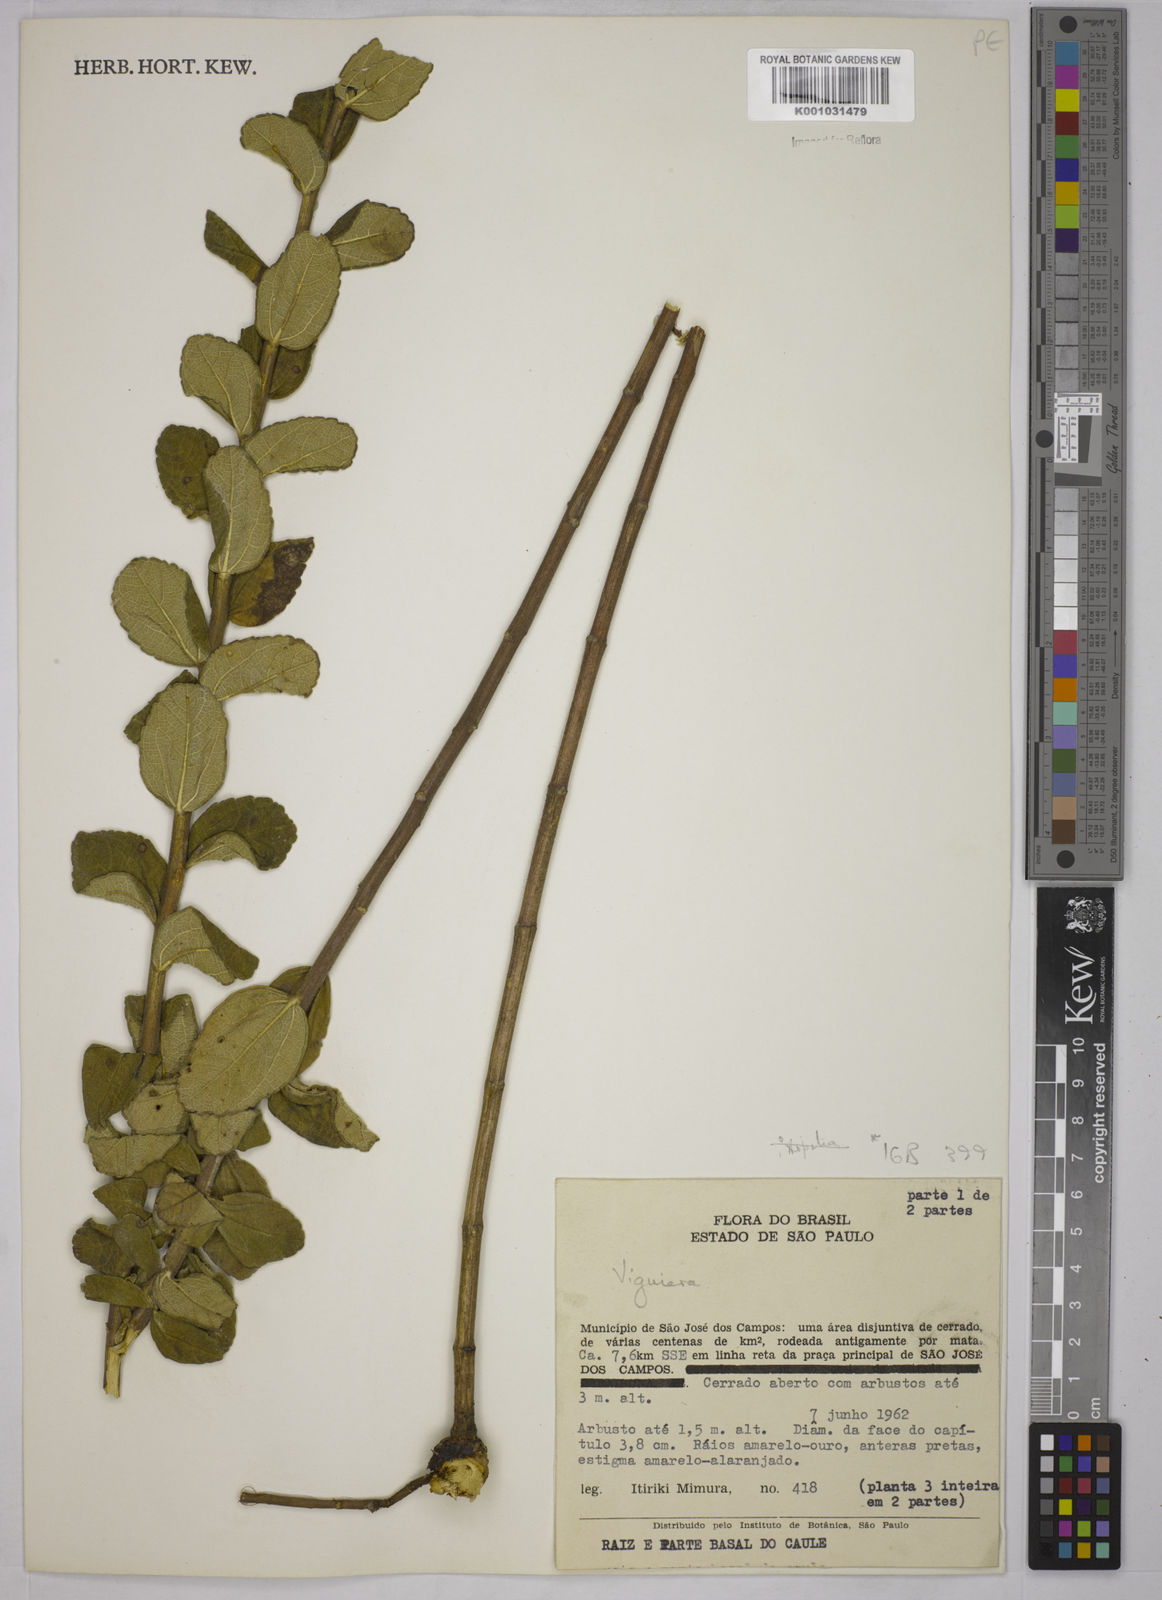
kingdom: Plantae
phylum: Tracheophyta
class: Magnoliopsida
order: Asterales
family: Asteraceae
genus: Aldama
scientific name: Aldama robusta
